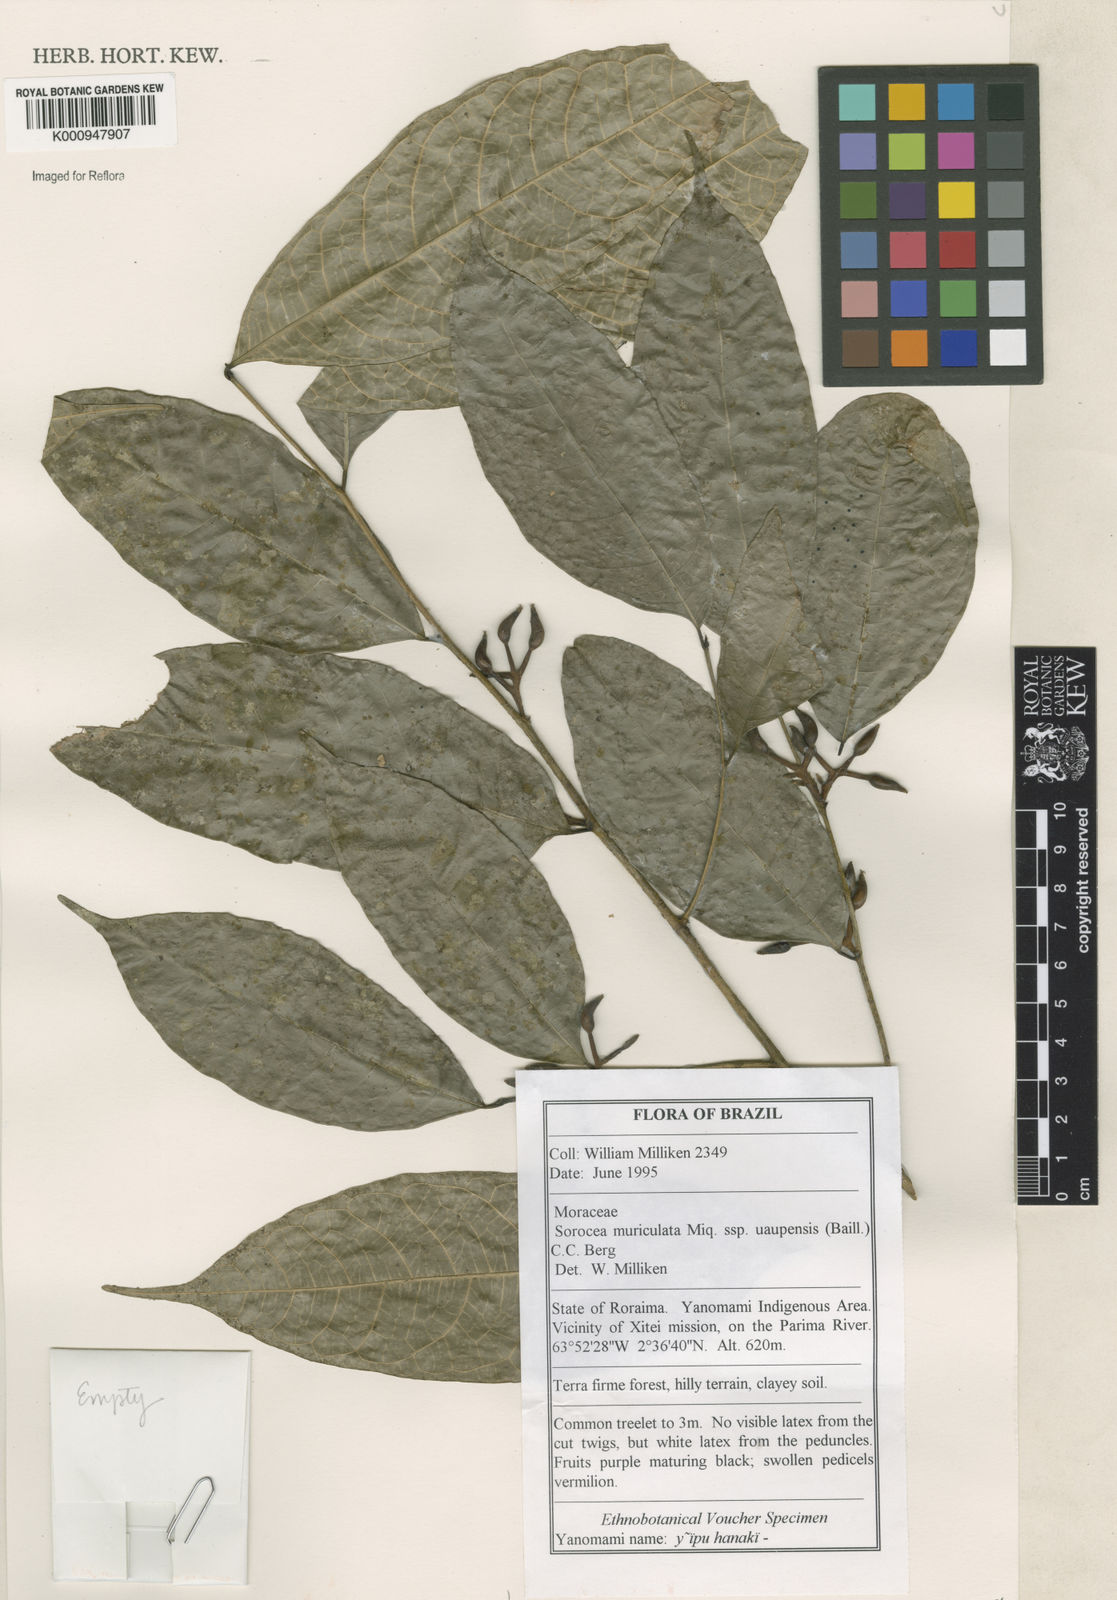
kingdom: Plantae
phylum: Tracheophyta
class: Magnoliopsida
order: Rosales
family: Moraceae
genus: Sorocea
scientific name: Sorocea muriculata
